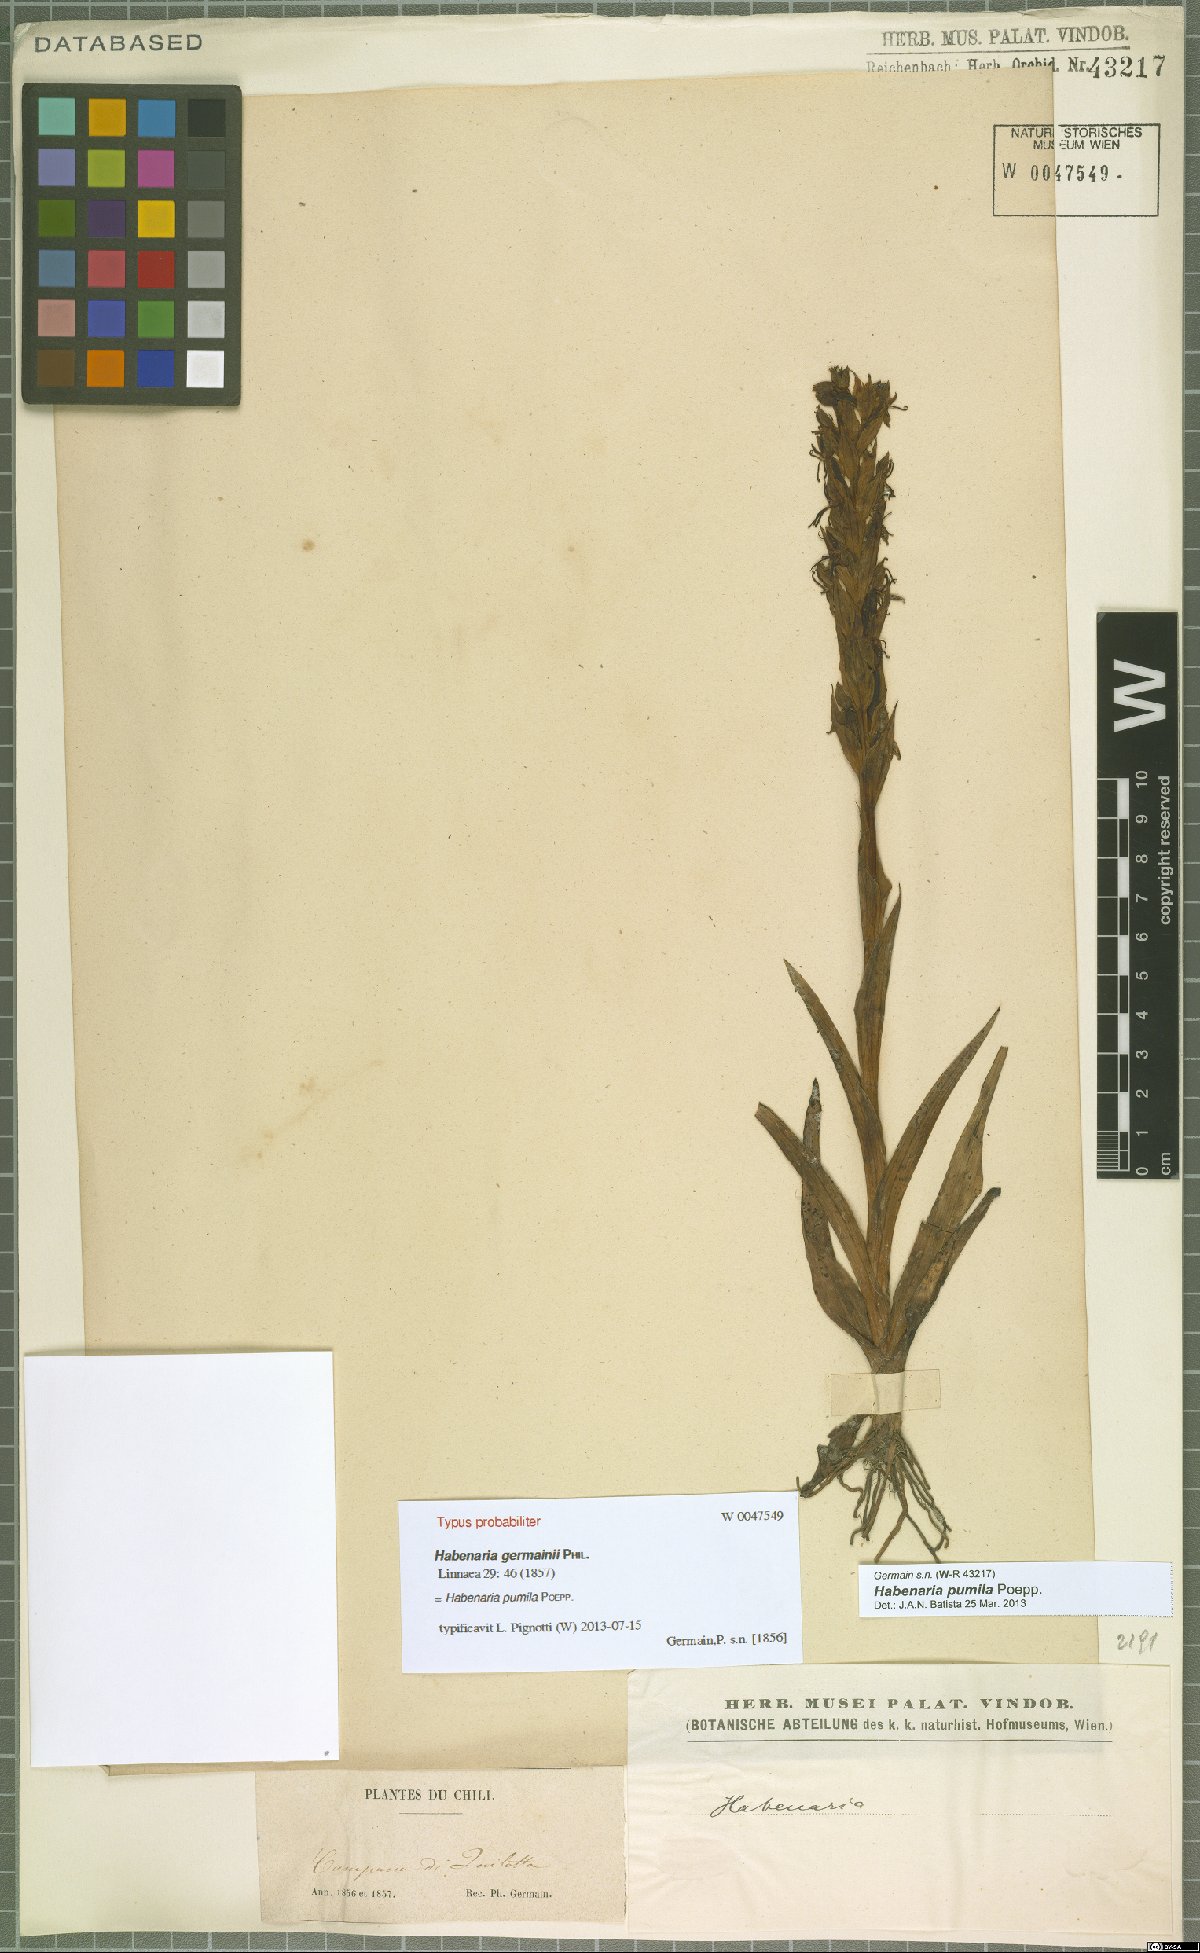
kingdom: Plantae
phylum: Tracheophyta
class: Liliopsida
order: Asparagales
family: Orchidaceae
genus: Habenaria
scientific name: Habenaria pumila
